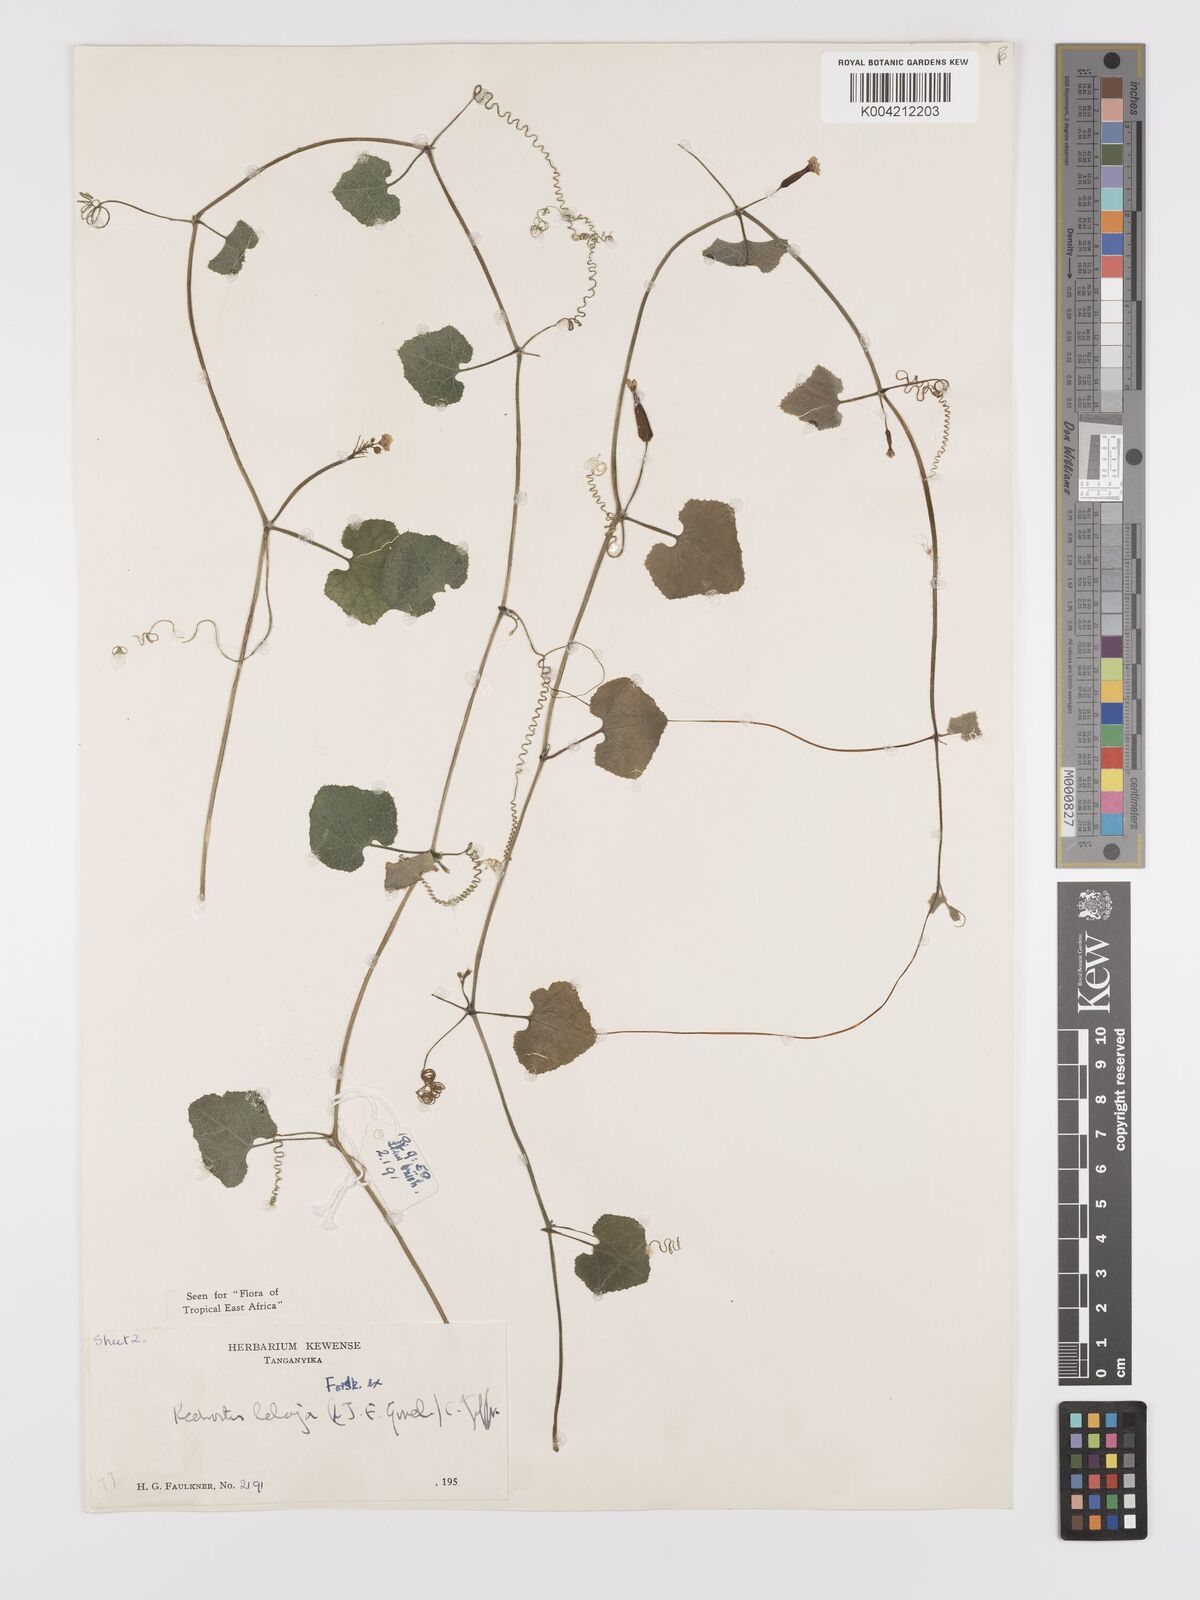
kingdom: Plantae
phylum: Tracheophyta
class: Magnoliopsida
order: Cucurbitales
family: Cucurbitaceae
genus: Kedrostis
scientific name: Kedrostis abdallae
